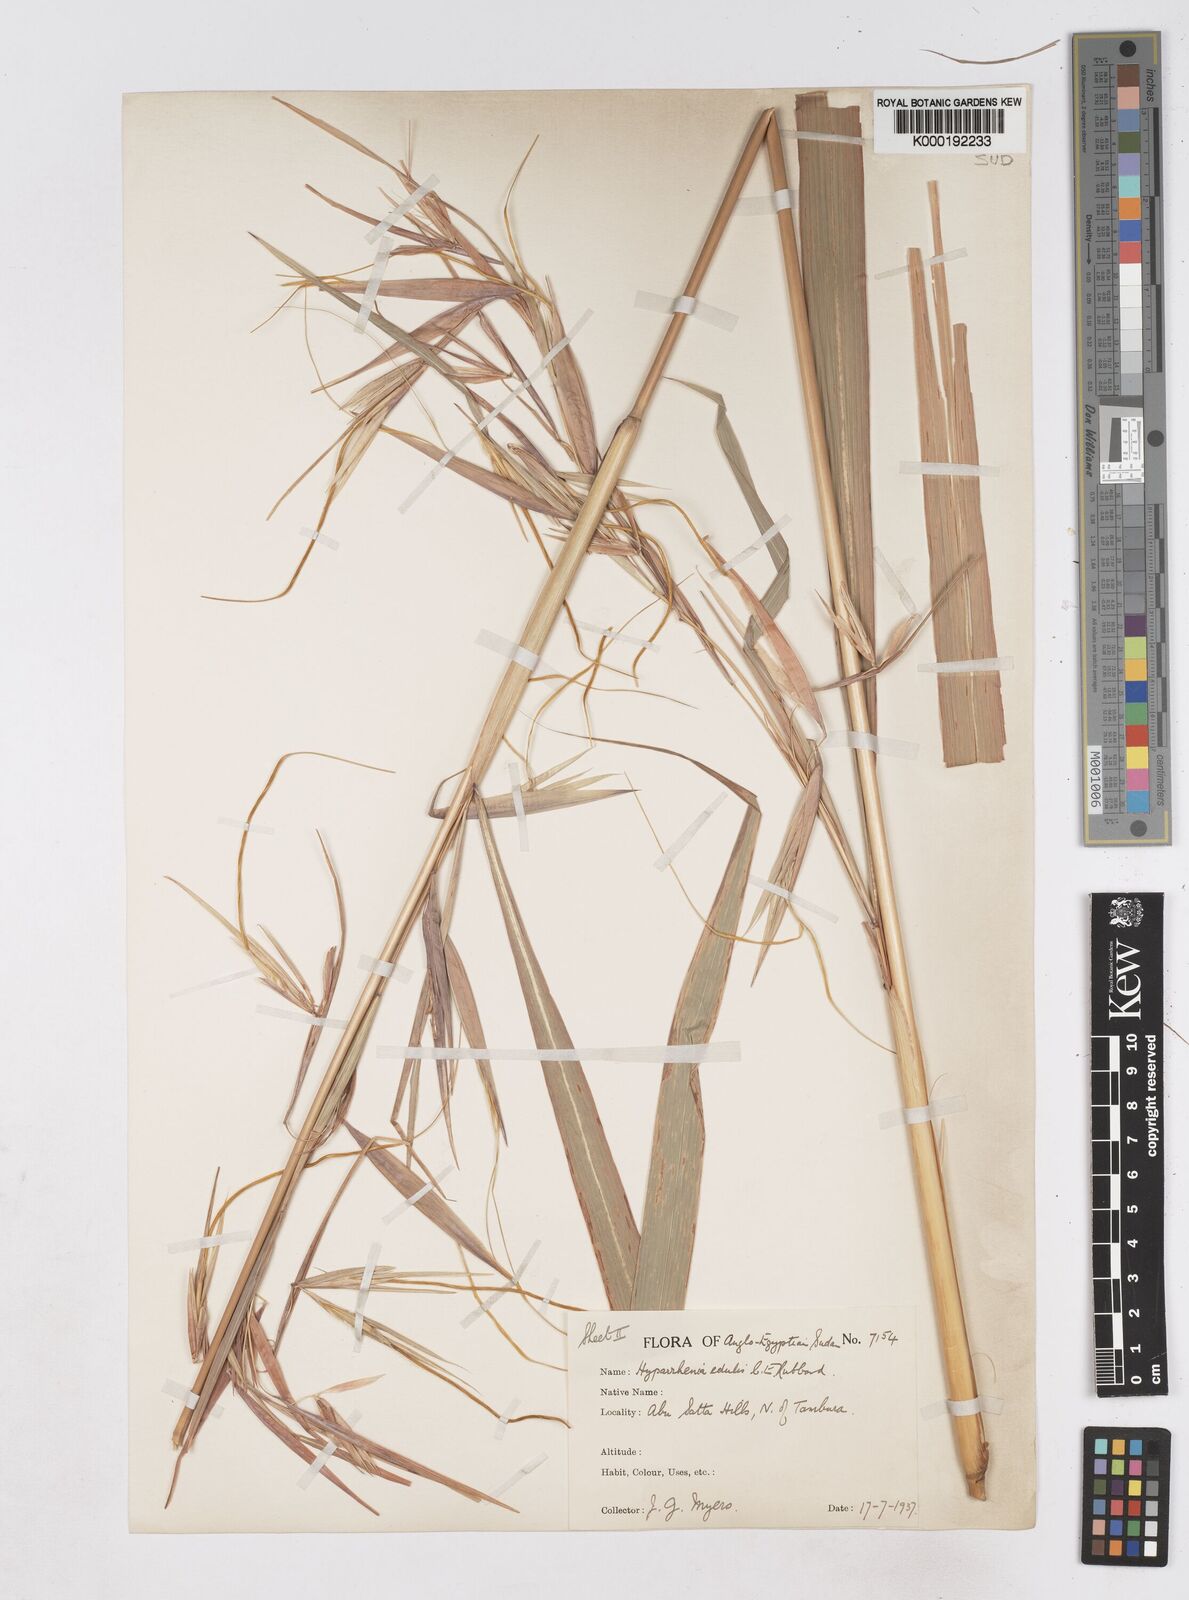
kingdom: Plantae
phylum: Tracheophyta
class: Liliopsida
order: Poales
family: Poaceae
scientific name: Poaceae
